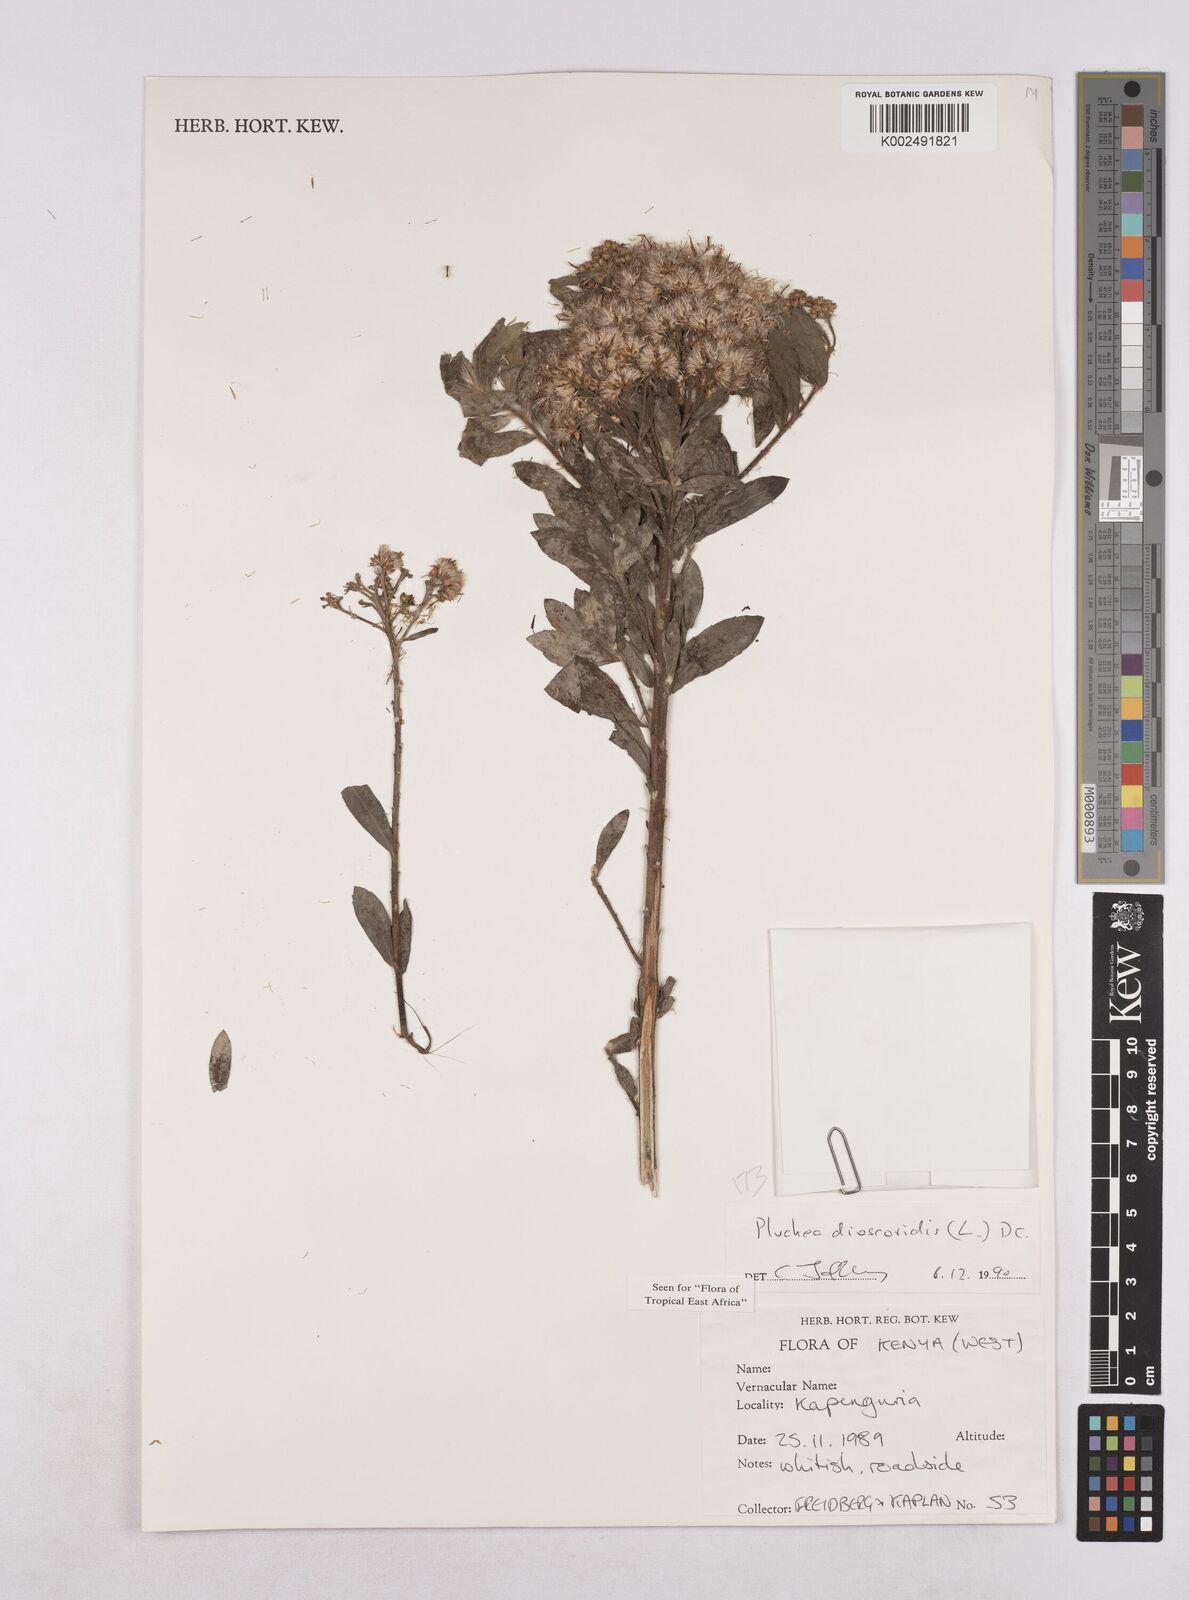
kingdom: Plantae
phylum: Tracheophyta
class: Magnoliopsida
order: Asterales
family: Asteraceae
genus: Pluchea
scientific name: Pluchea dioscoridis
